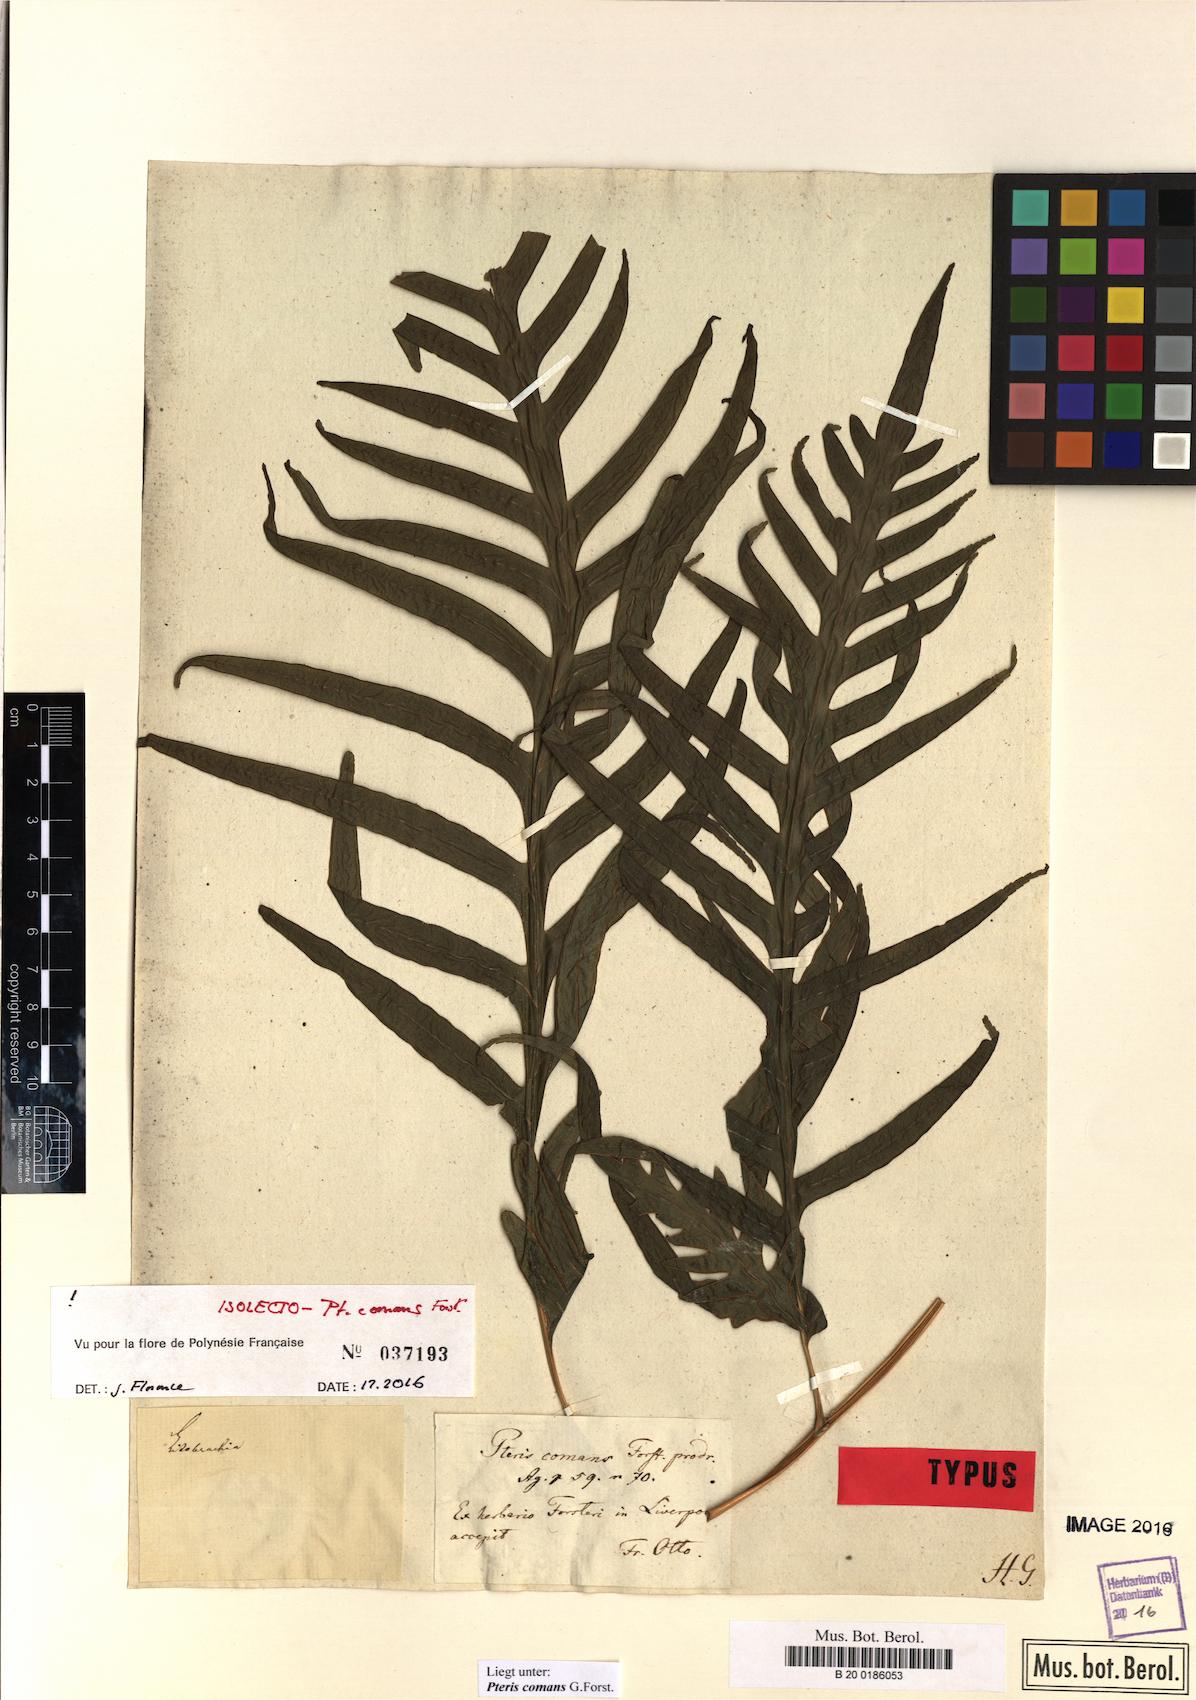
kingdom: Plantae
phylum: Tracheophyta
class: Polypodiopsida
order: Polypodiales
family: Pteridaceae
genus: Pteris
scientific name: Pteris comans
